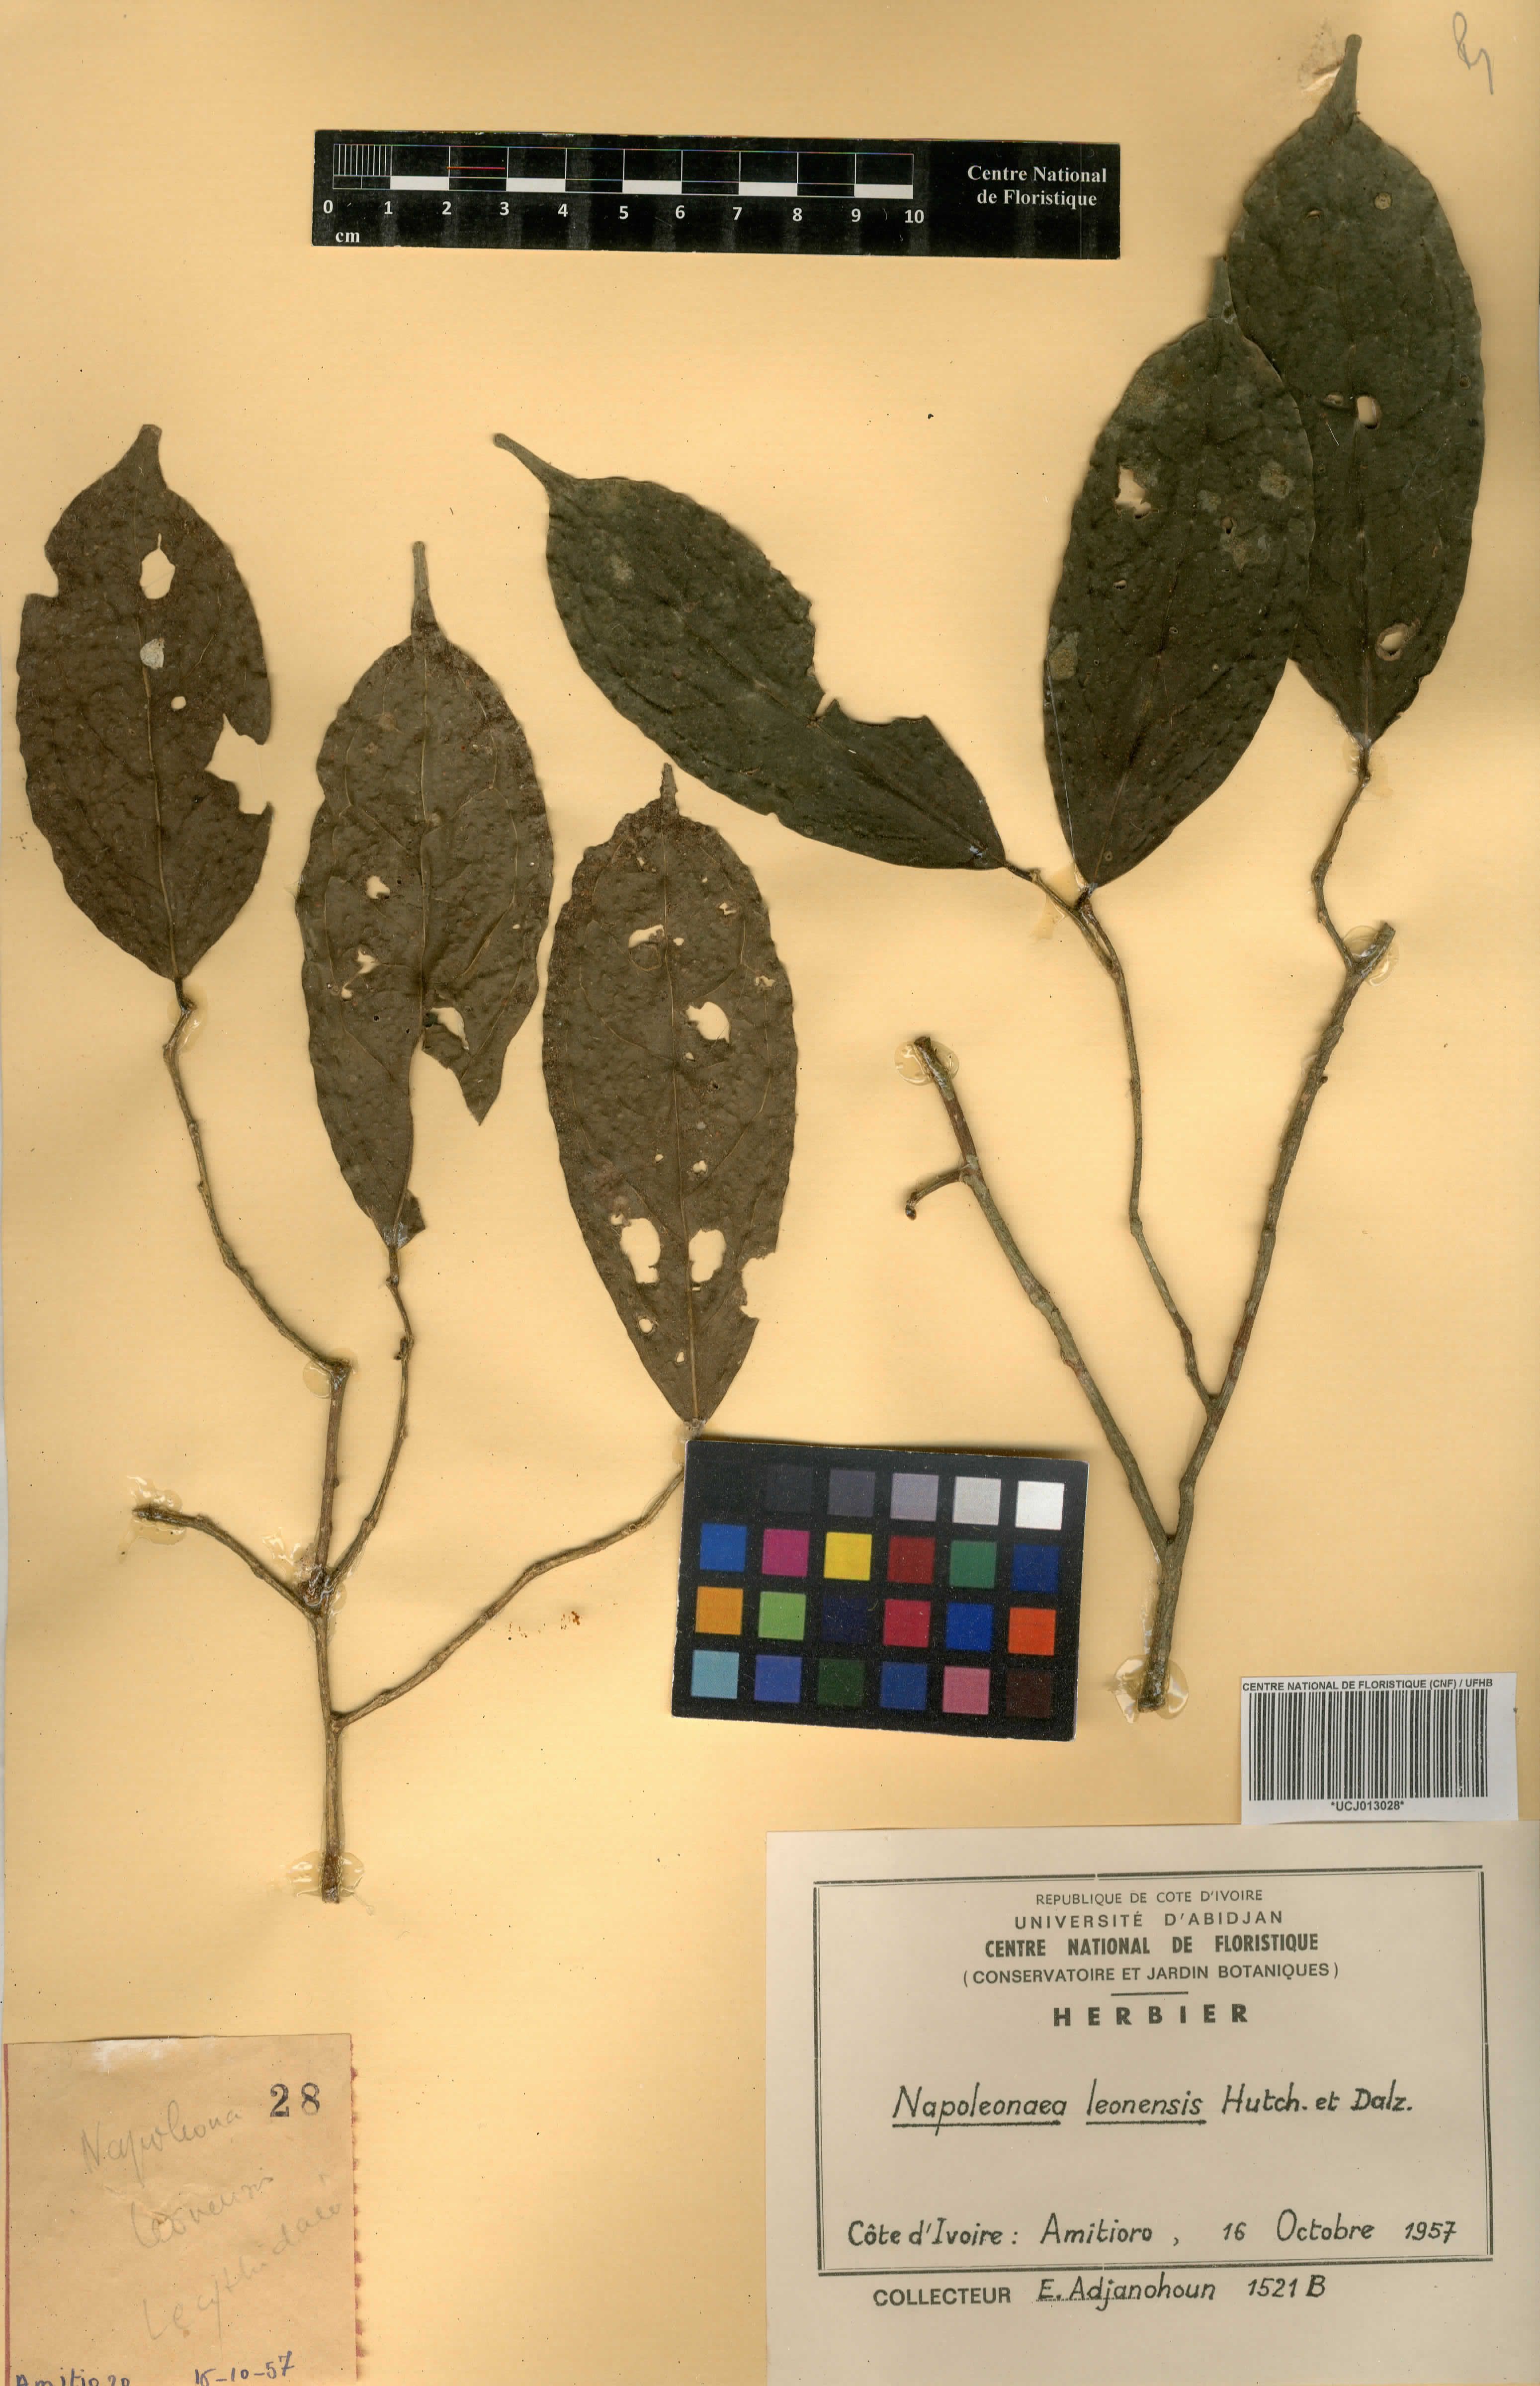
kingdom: Plantae
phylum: Tracheophyta
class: Magnoliopsida
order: Ericales
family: Lecythidaceae
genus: Napoleonaea
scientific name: Napoleonaea leonensis
